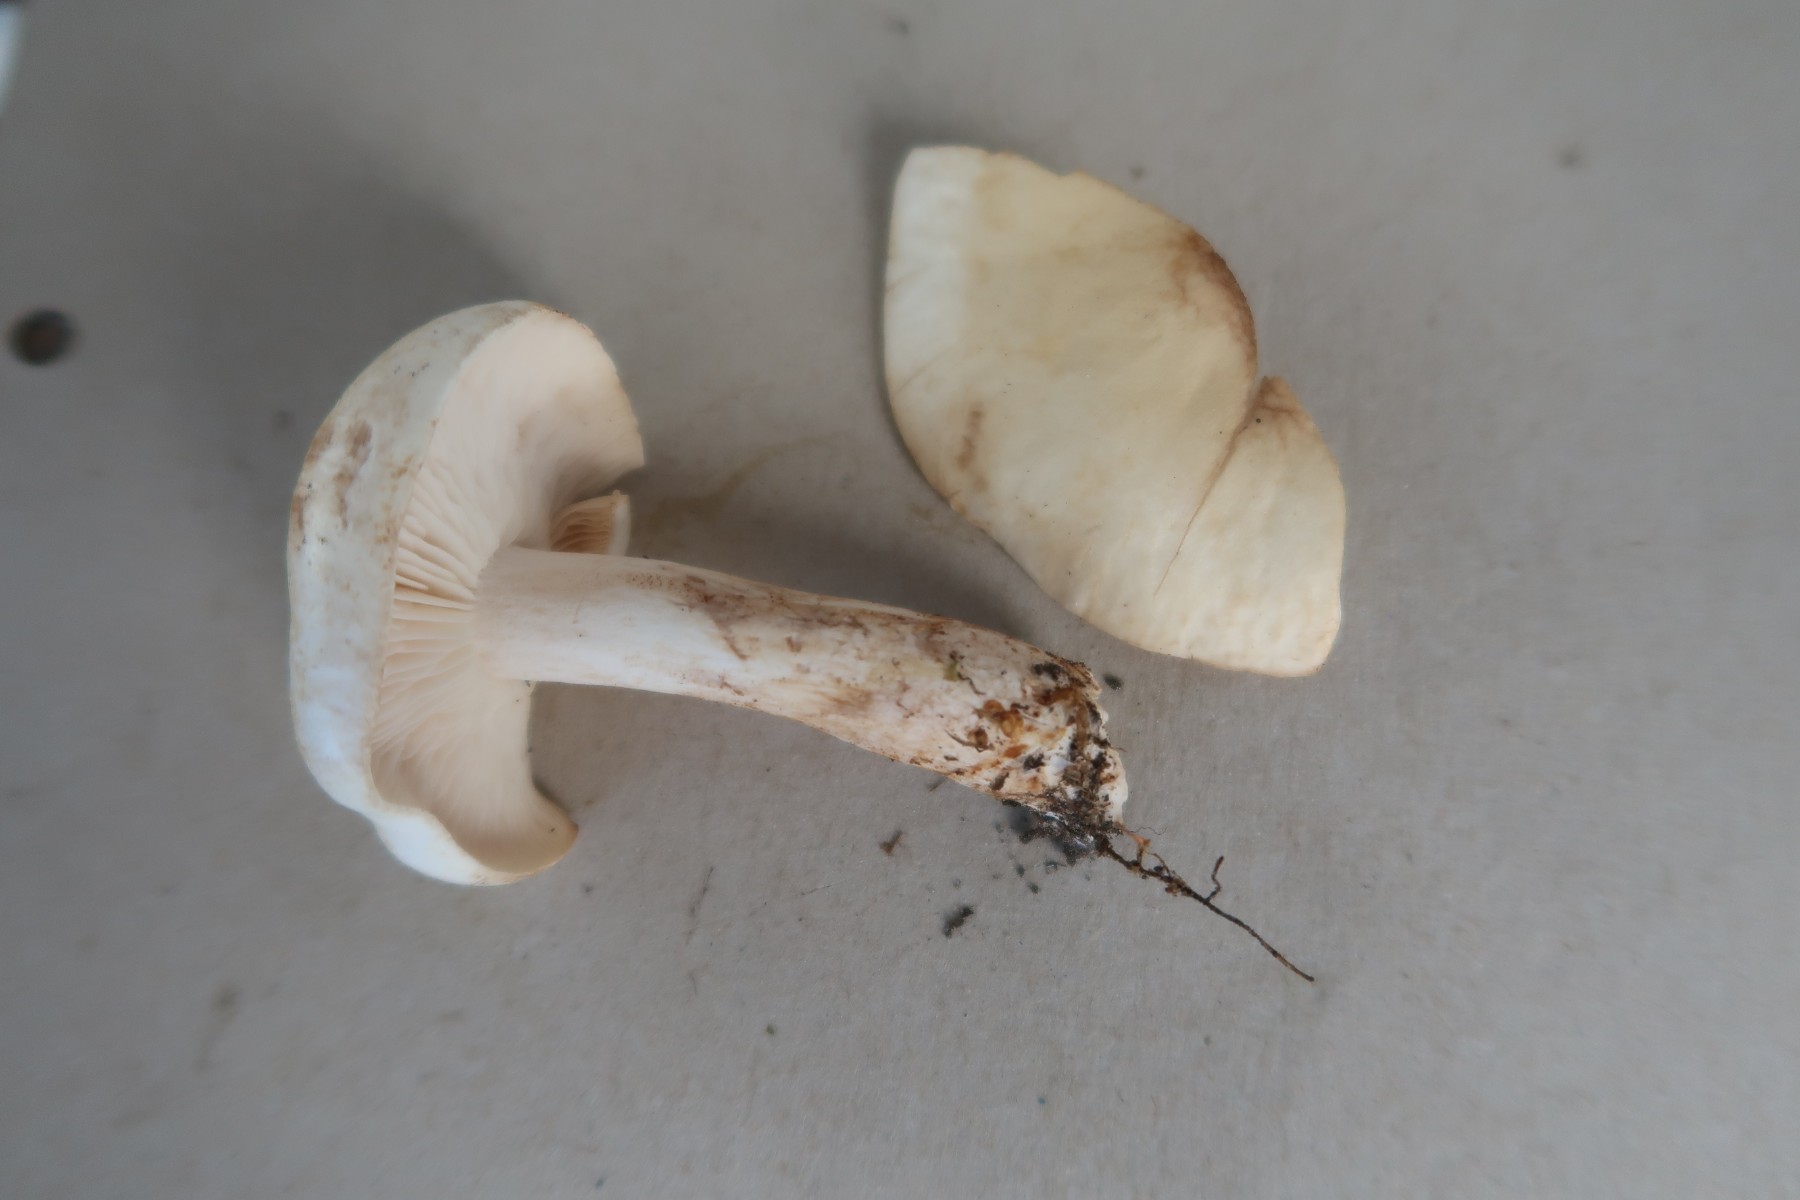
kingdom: Fungi
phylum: Basidiomycota
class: Agaricomycetes
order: Agaricales
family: Tricholomataceae
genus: Tricholoma
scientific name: Tricholoma stiparophyllum
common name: hvid ridderhat
